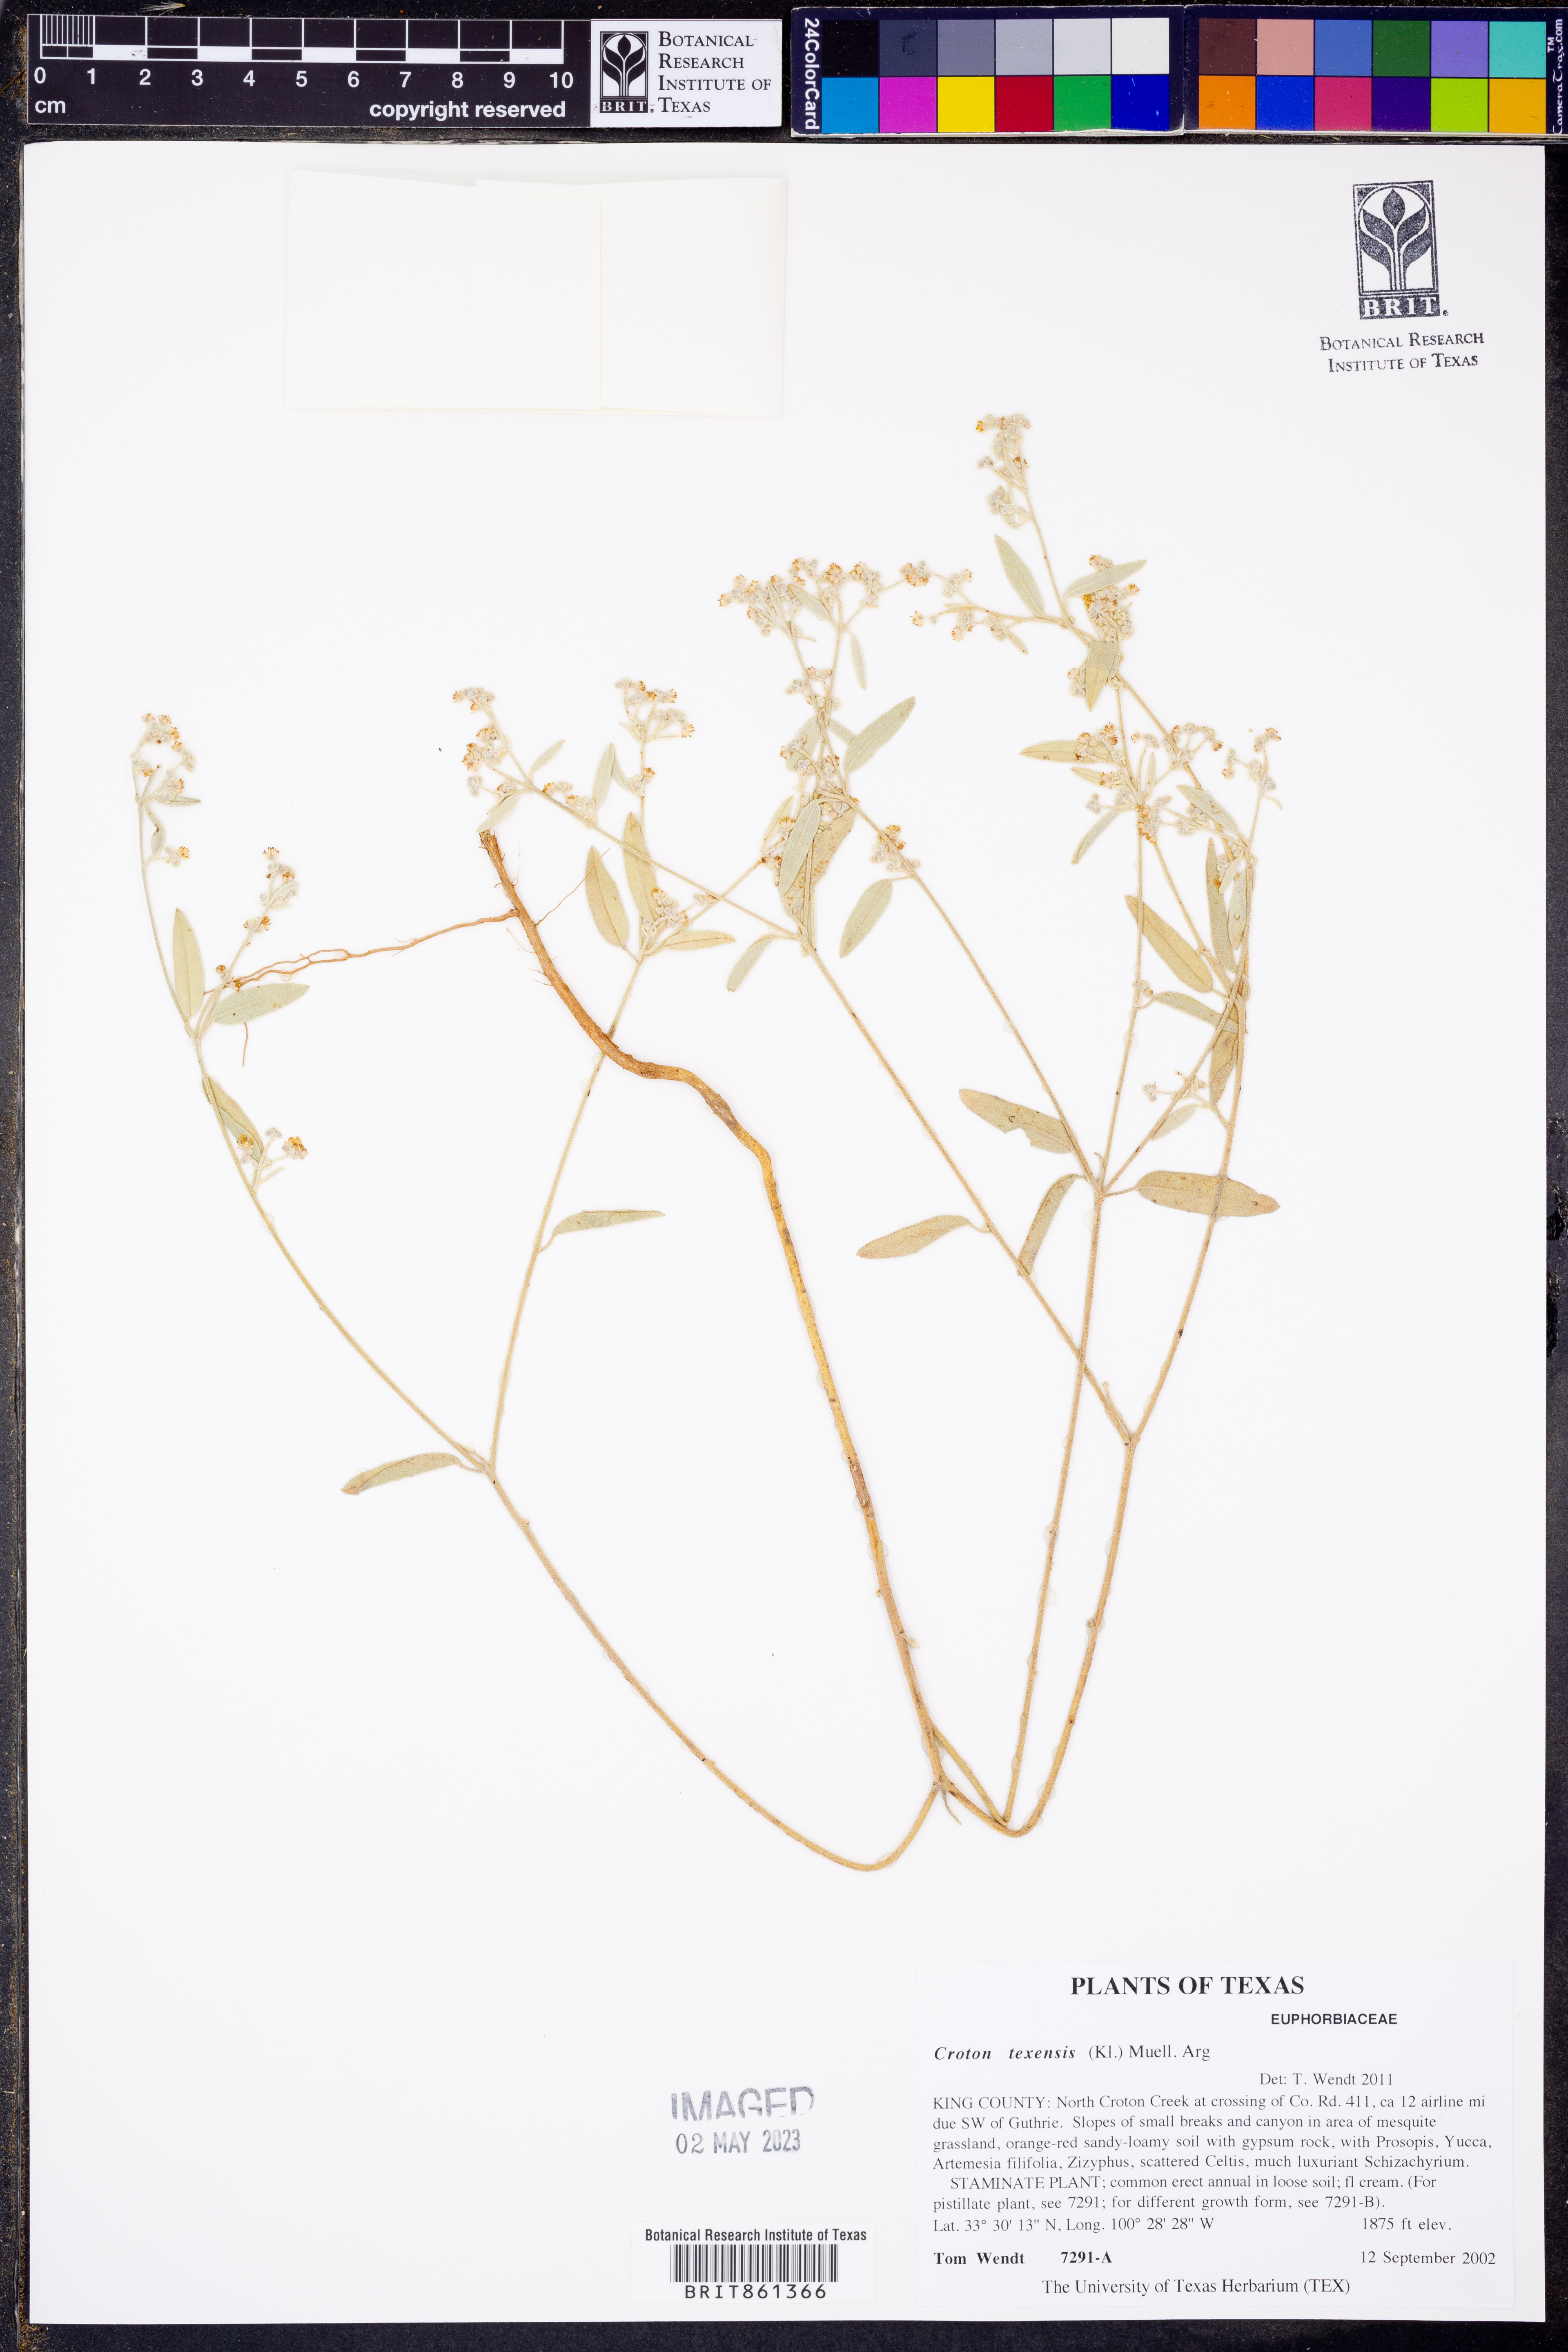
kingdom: Plantae
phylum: Tracheophyta
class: Magnoliopsida
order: Malpighiales
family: Euphorbiaceae
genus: Croton
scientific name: Croton texensis
